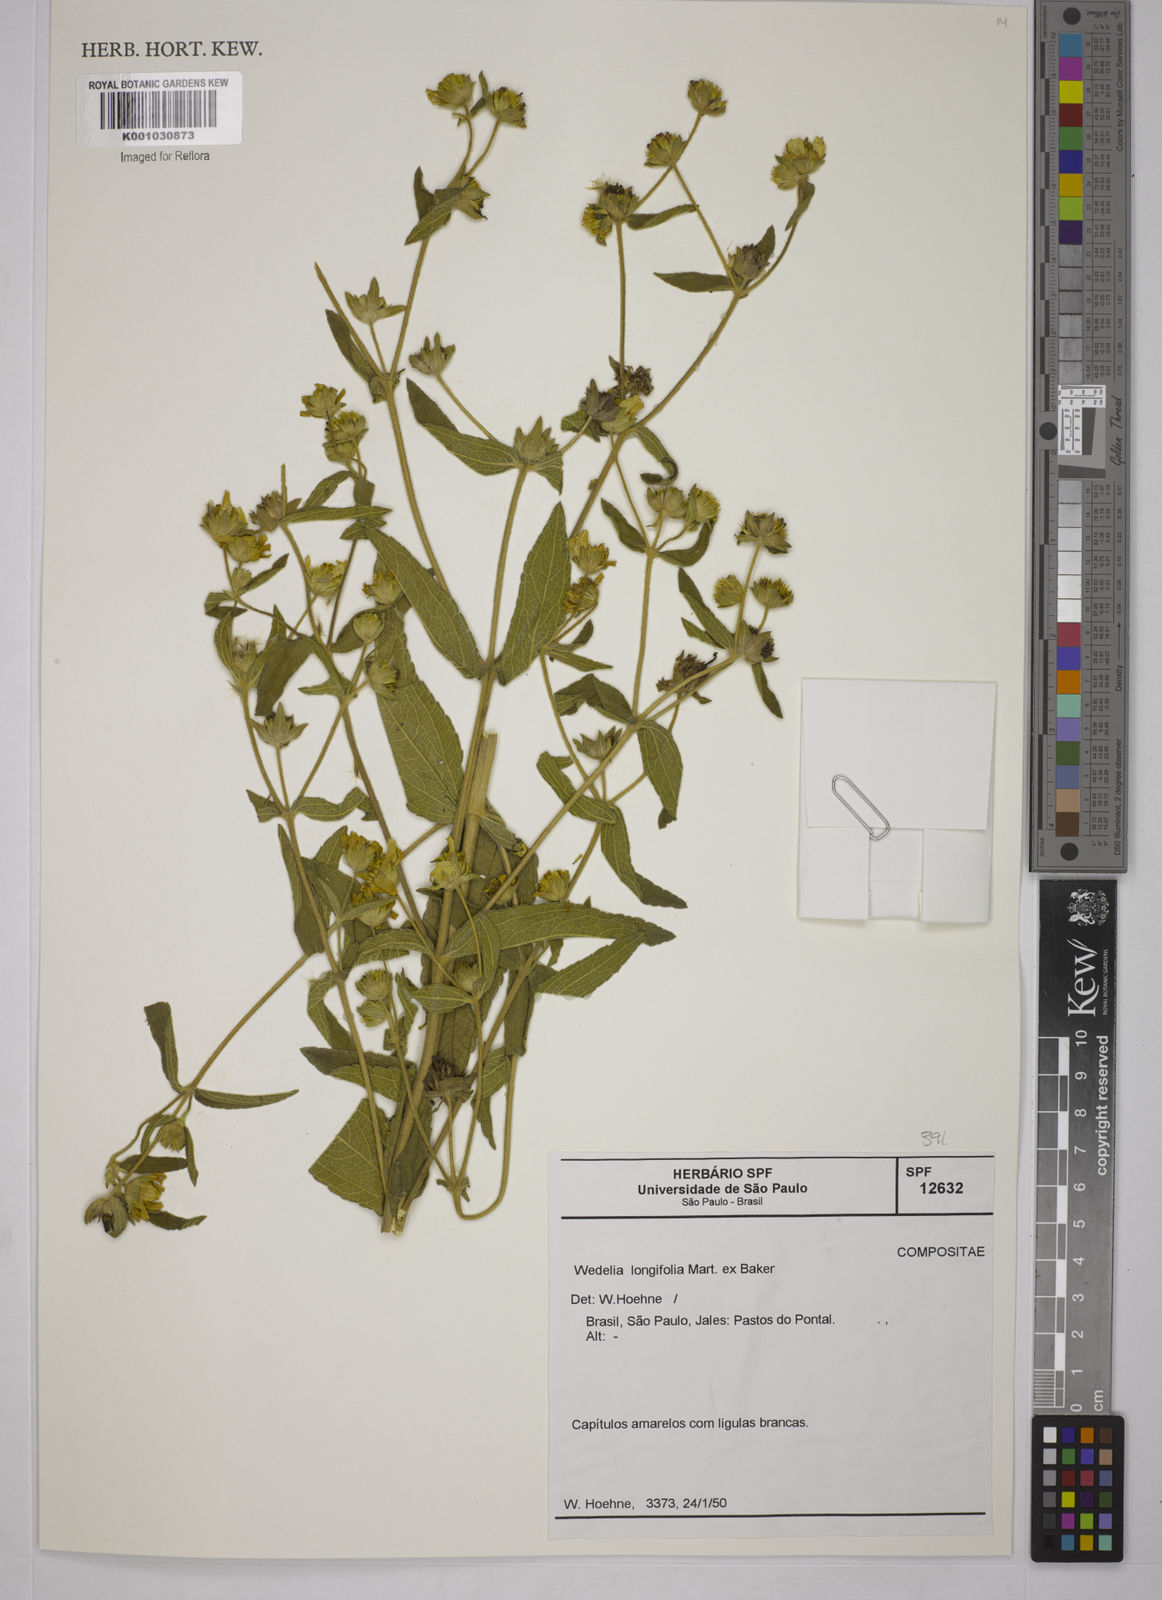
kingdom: Plantae
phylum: Tracheophyta
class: Magnoliopsida
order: Asterales
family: Asteraceae
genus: Wedelia
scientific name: Wedelia
